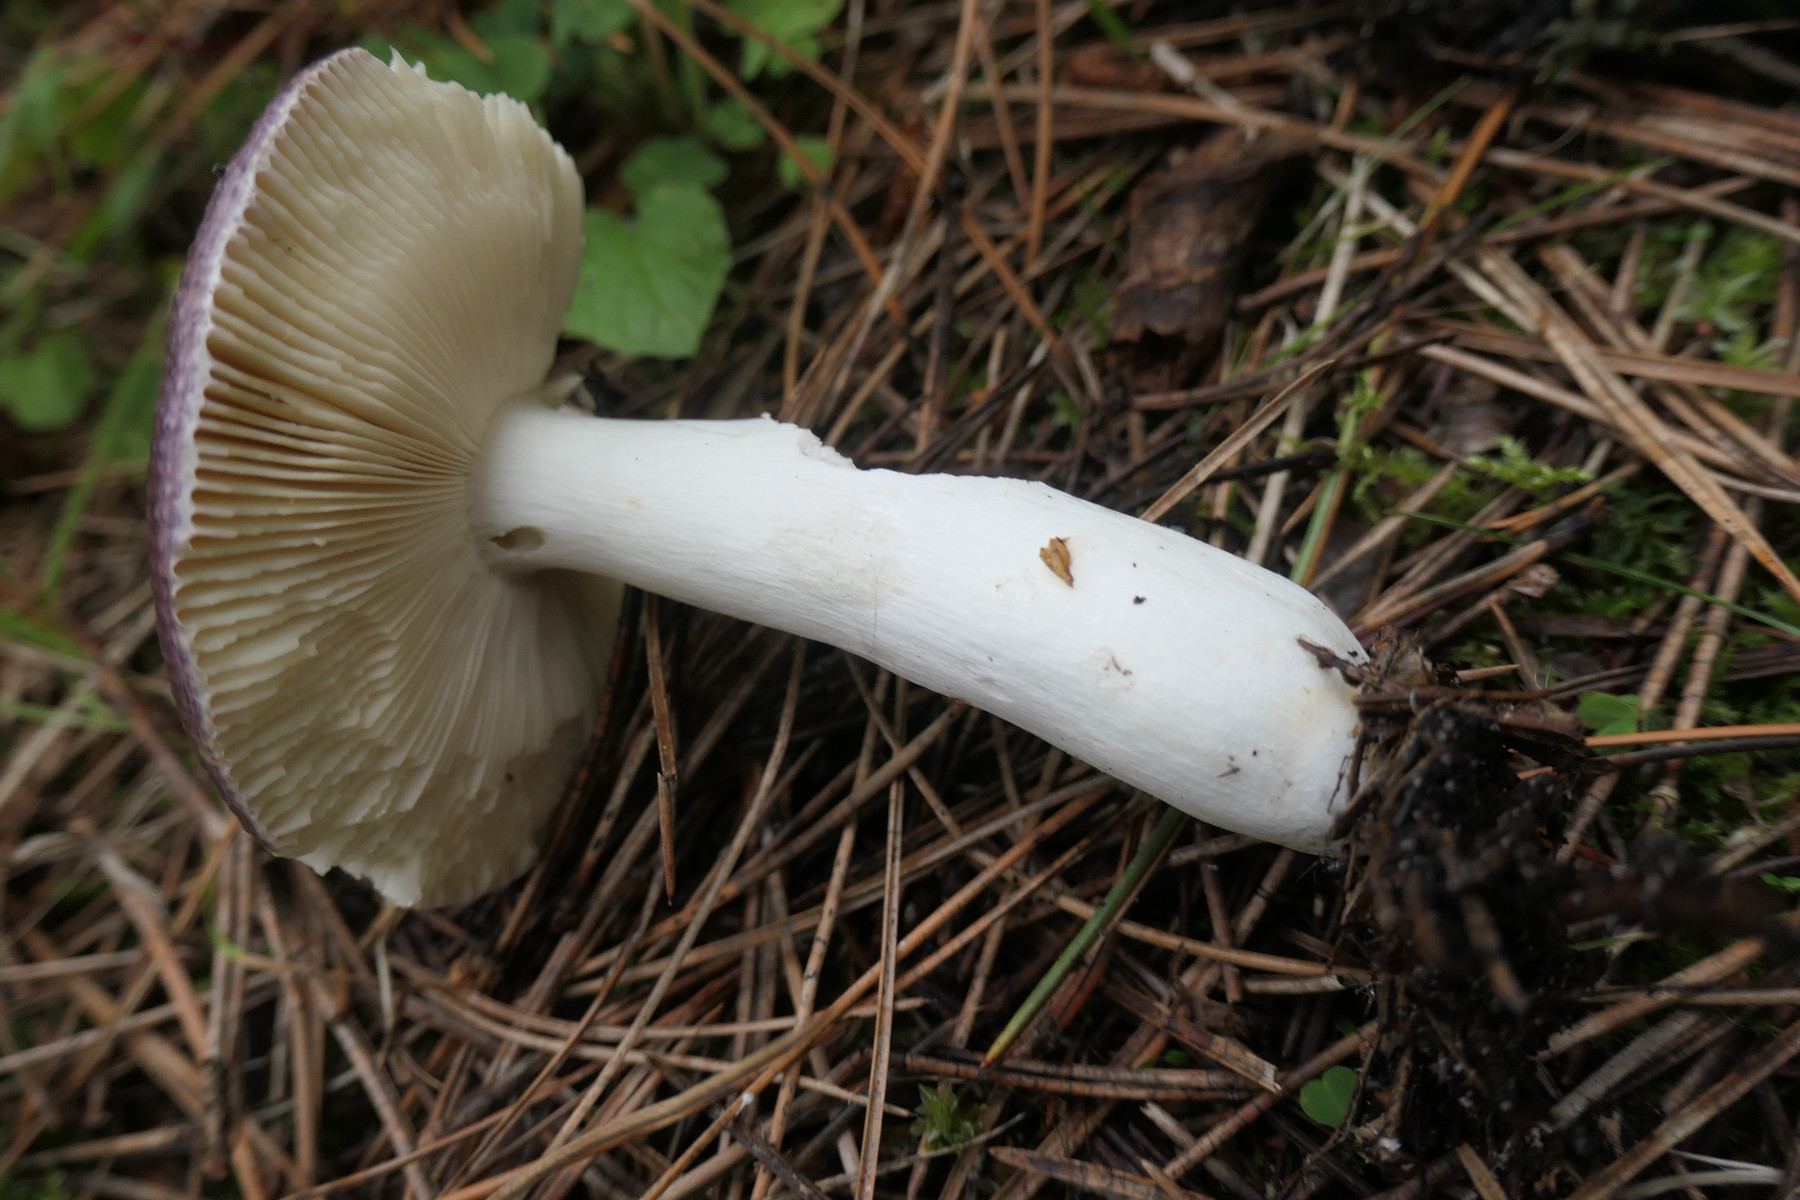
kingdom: Fungi
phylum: Basidiomycota
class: Agaricomycetes
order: Russulales
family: Russulaceae
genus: Russula
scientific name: Russula caerulea
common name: puklet skørhat
